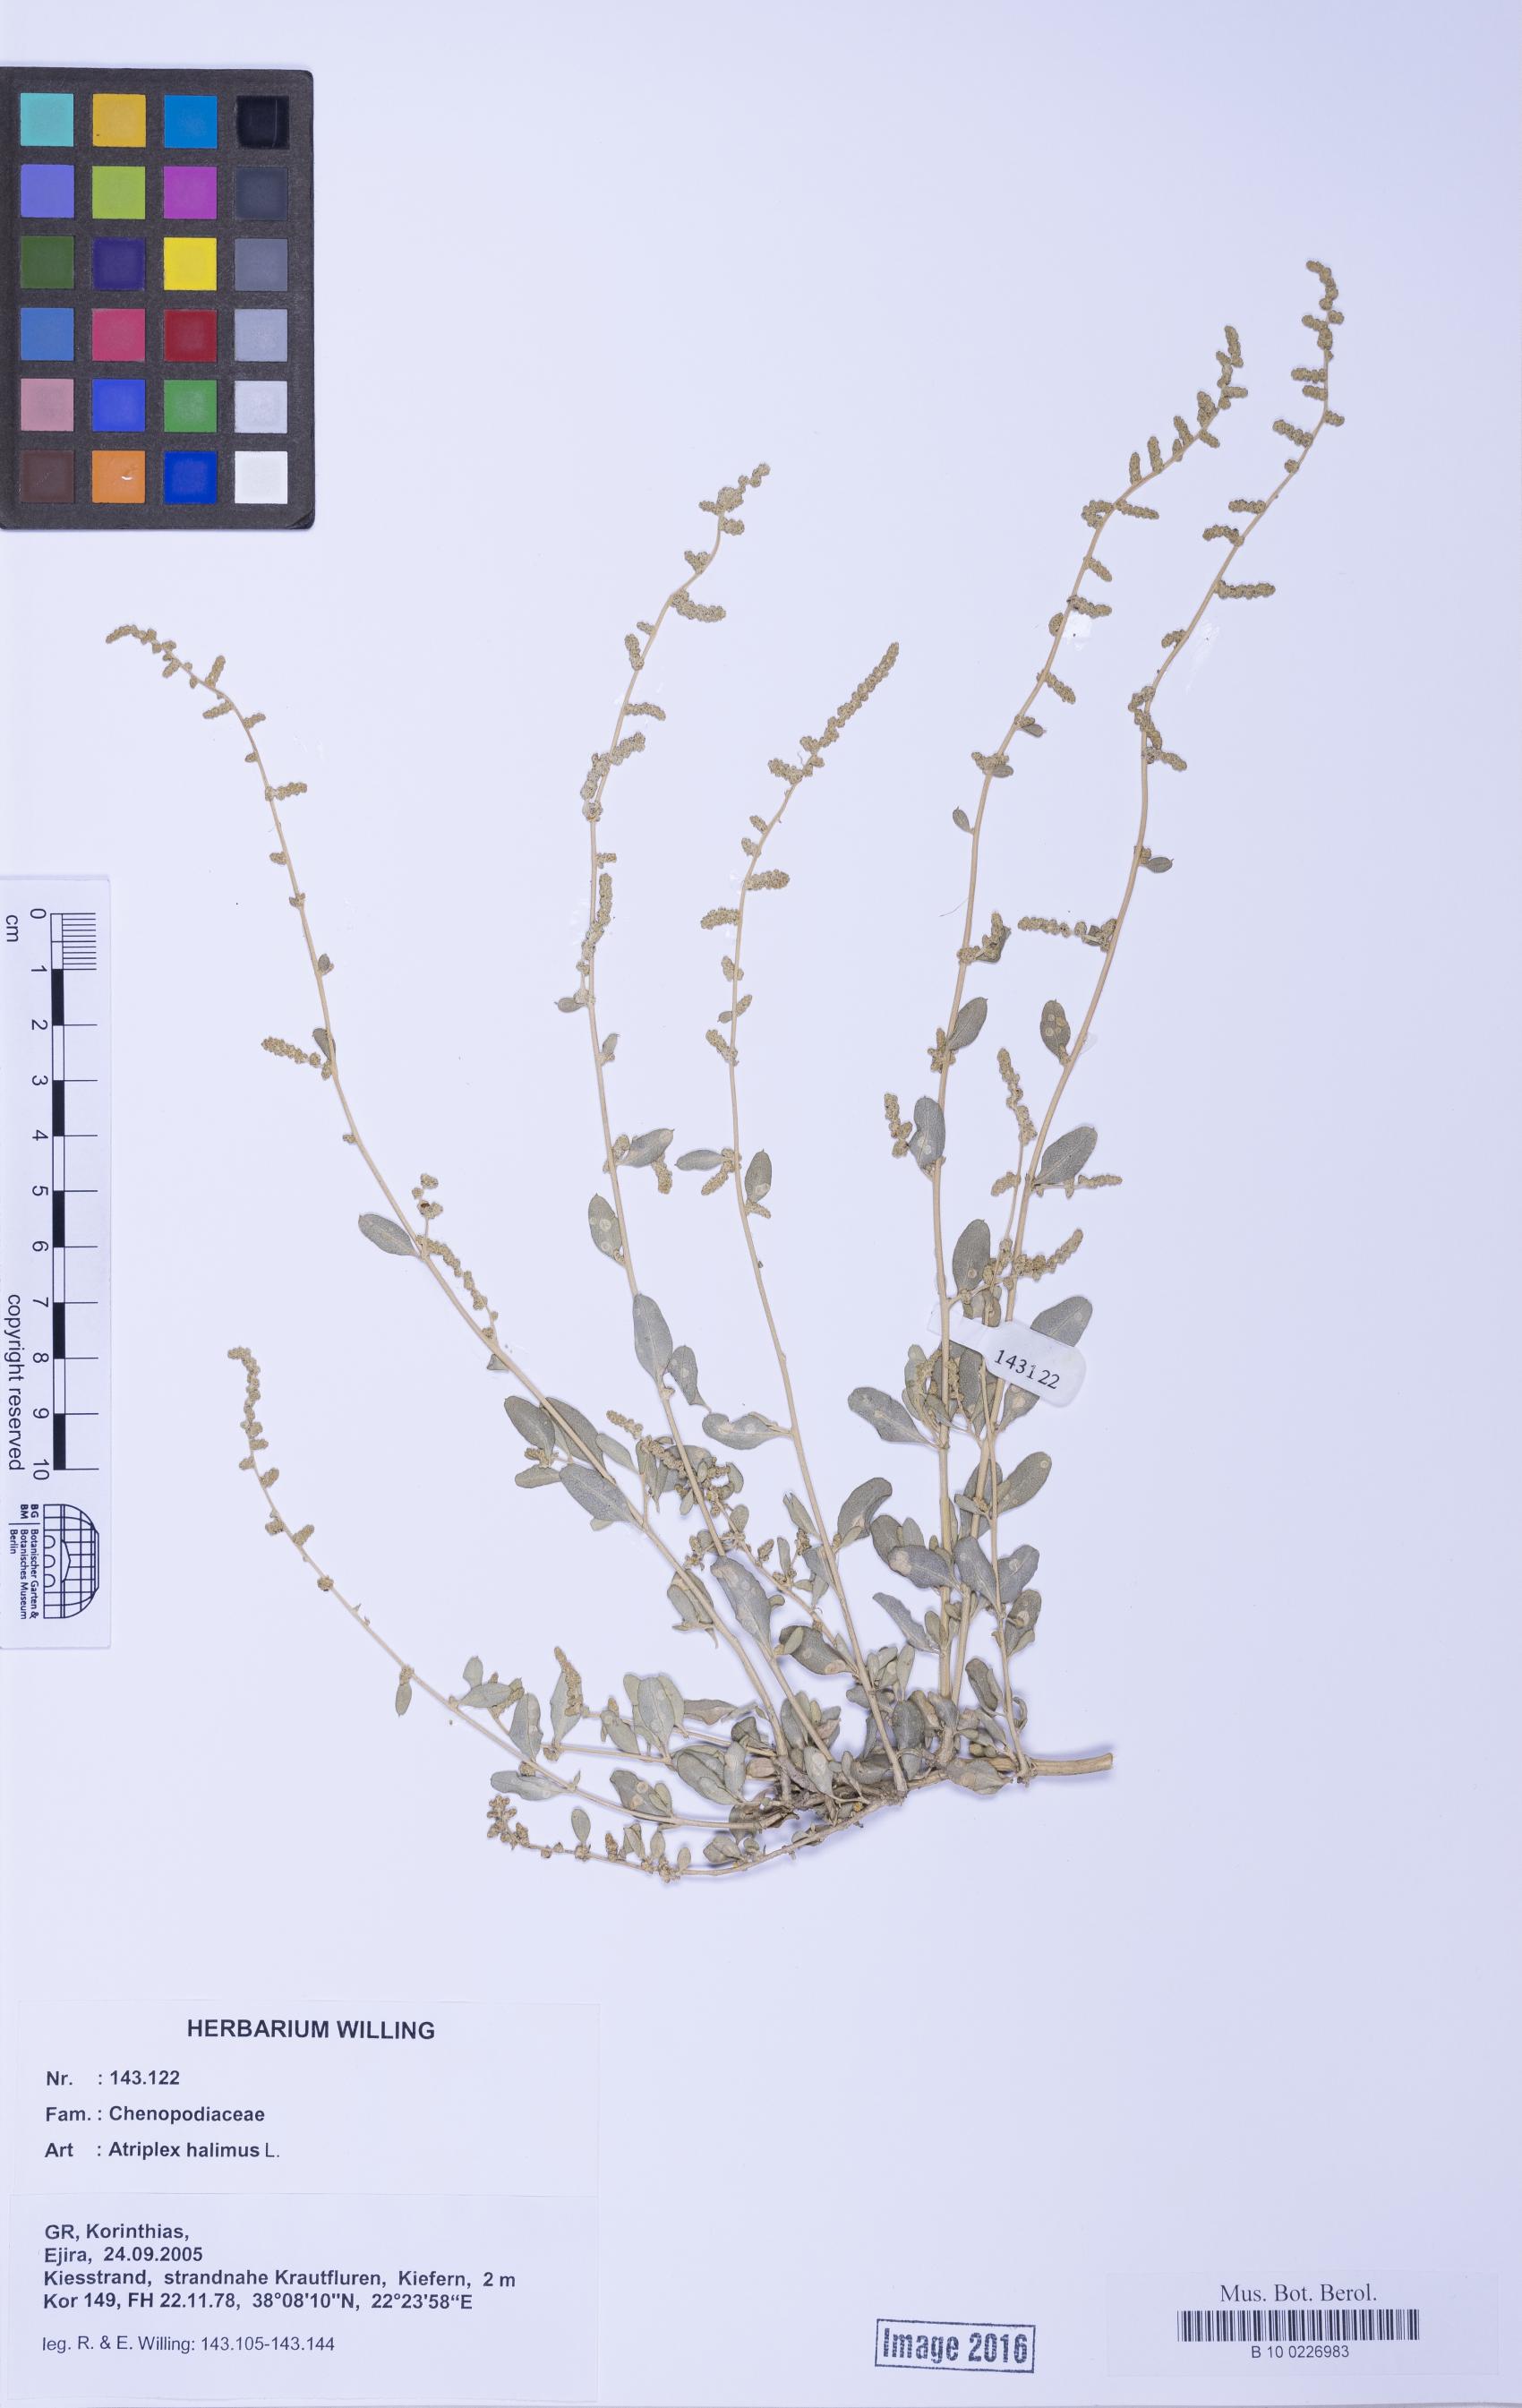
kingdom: Plantae
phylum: Tracheophyta
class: Liliopsida
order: Poales
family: Poaceae
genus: Agrostis
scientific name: Agrostis gigantea
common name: Black bent
